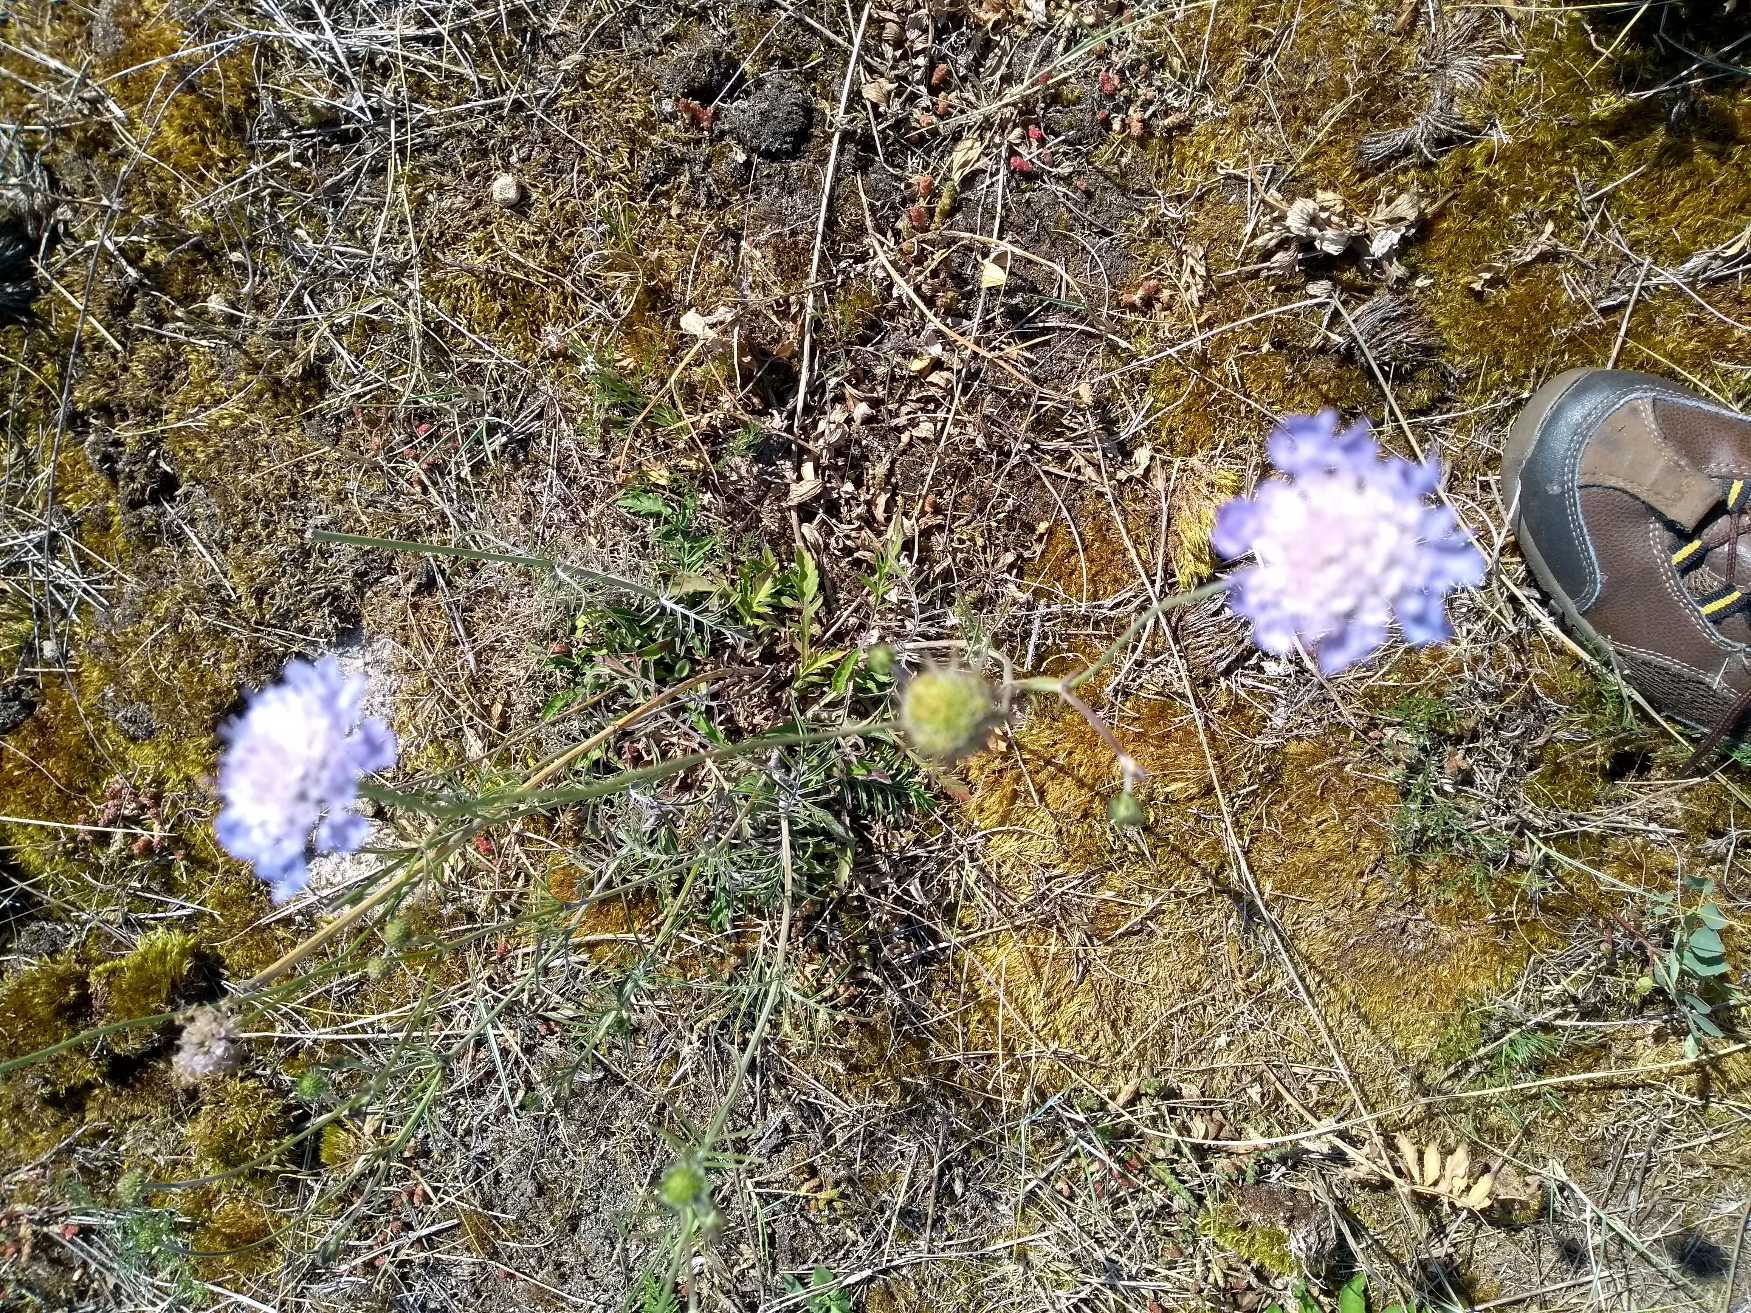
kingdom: Plantae
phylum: Tracheophyta
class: Magnoliopsida
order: Dipsacales
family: Caprifoliaceae
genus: Scabiosa
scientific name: Scabiosa columbaria
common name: Due-skabiose
